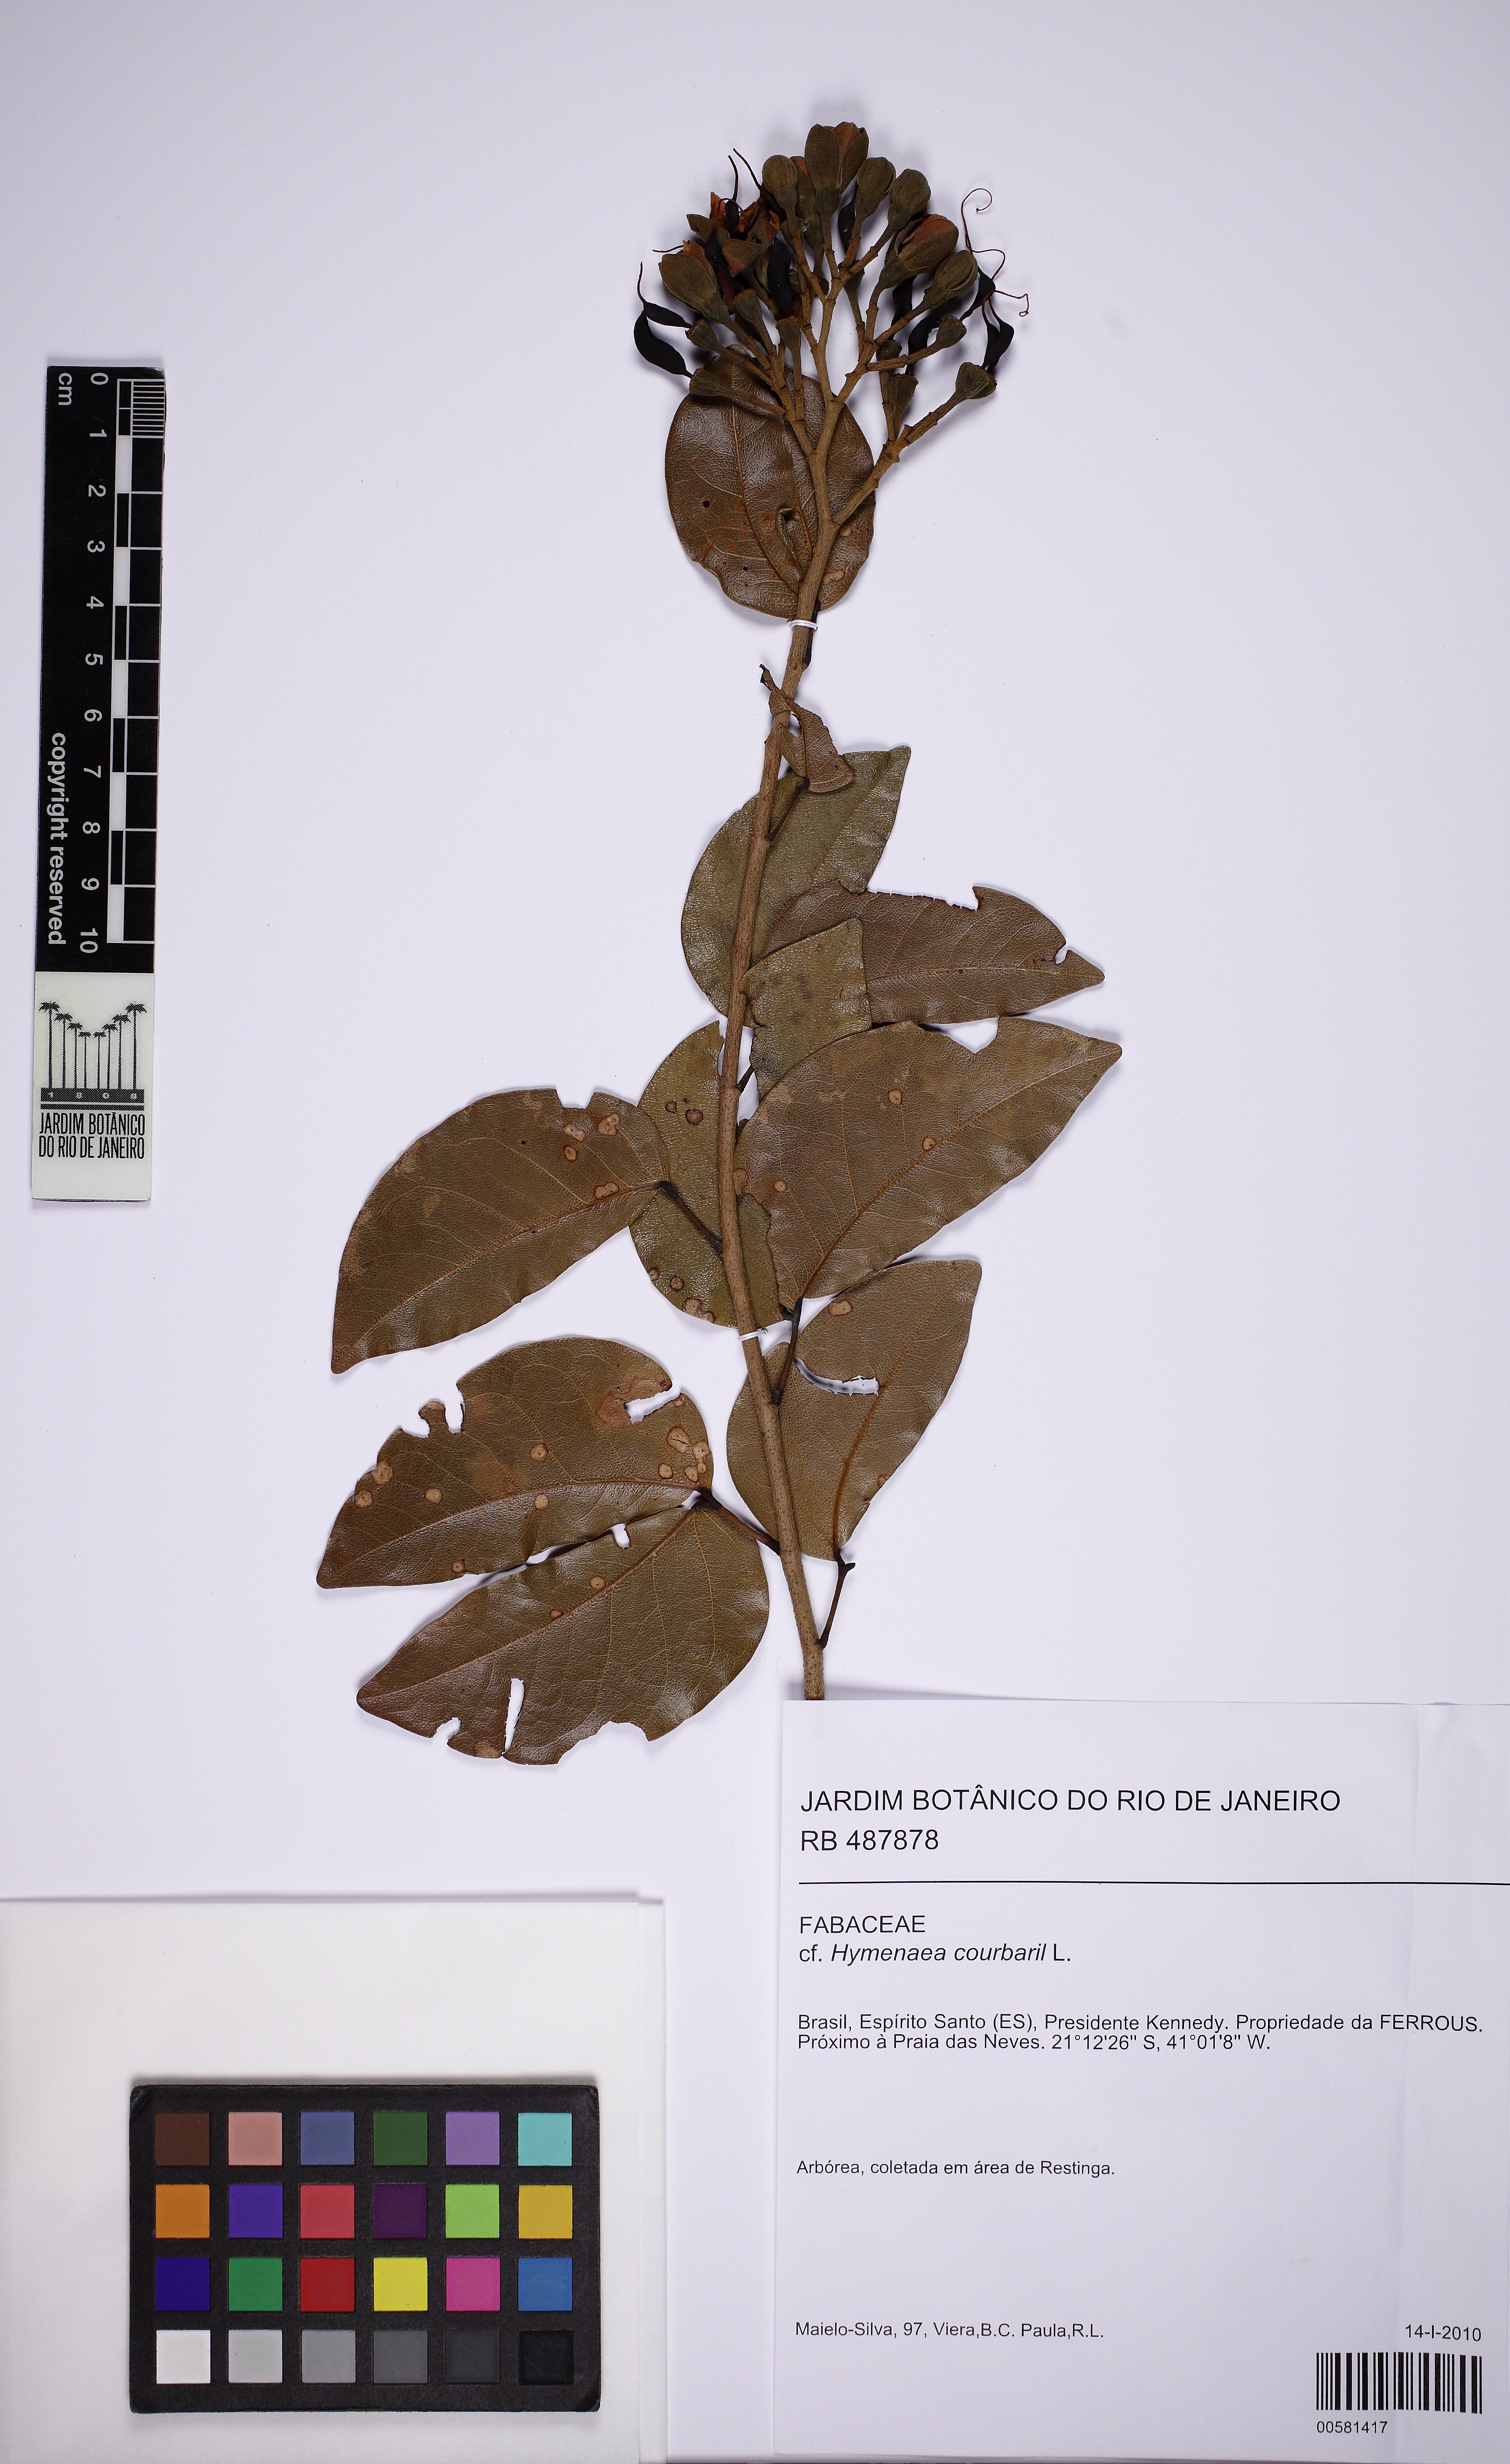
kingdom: Plantae
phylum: Tracheophyta
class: Magnoliopsida
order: Fabales
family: Fabaceae
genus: Hymenaea
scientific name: Hymenaea fariana
